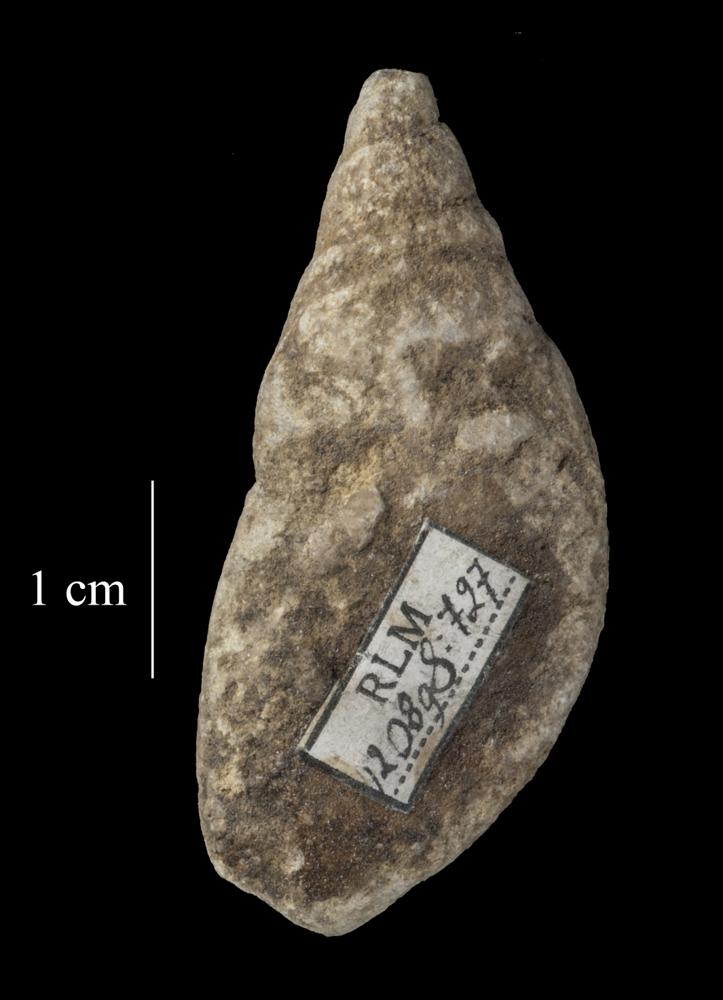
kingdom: Animalia
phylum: Mollusca
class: Gastropoda
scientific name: Gastropoda
